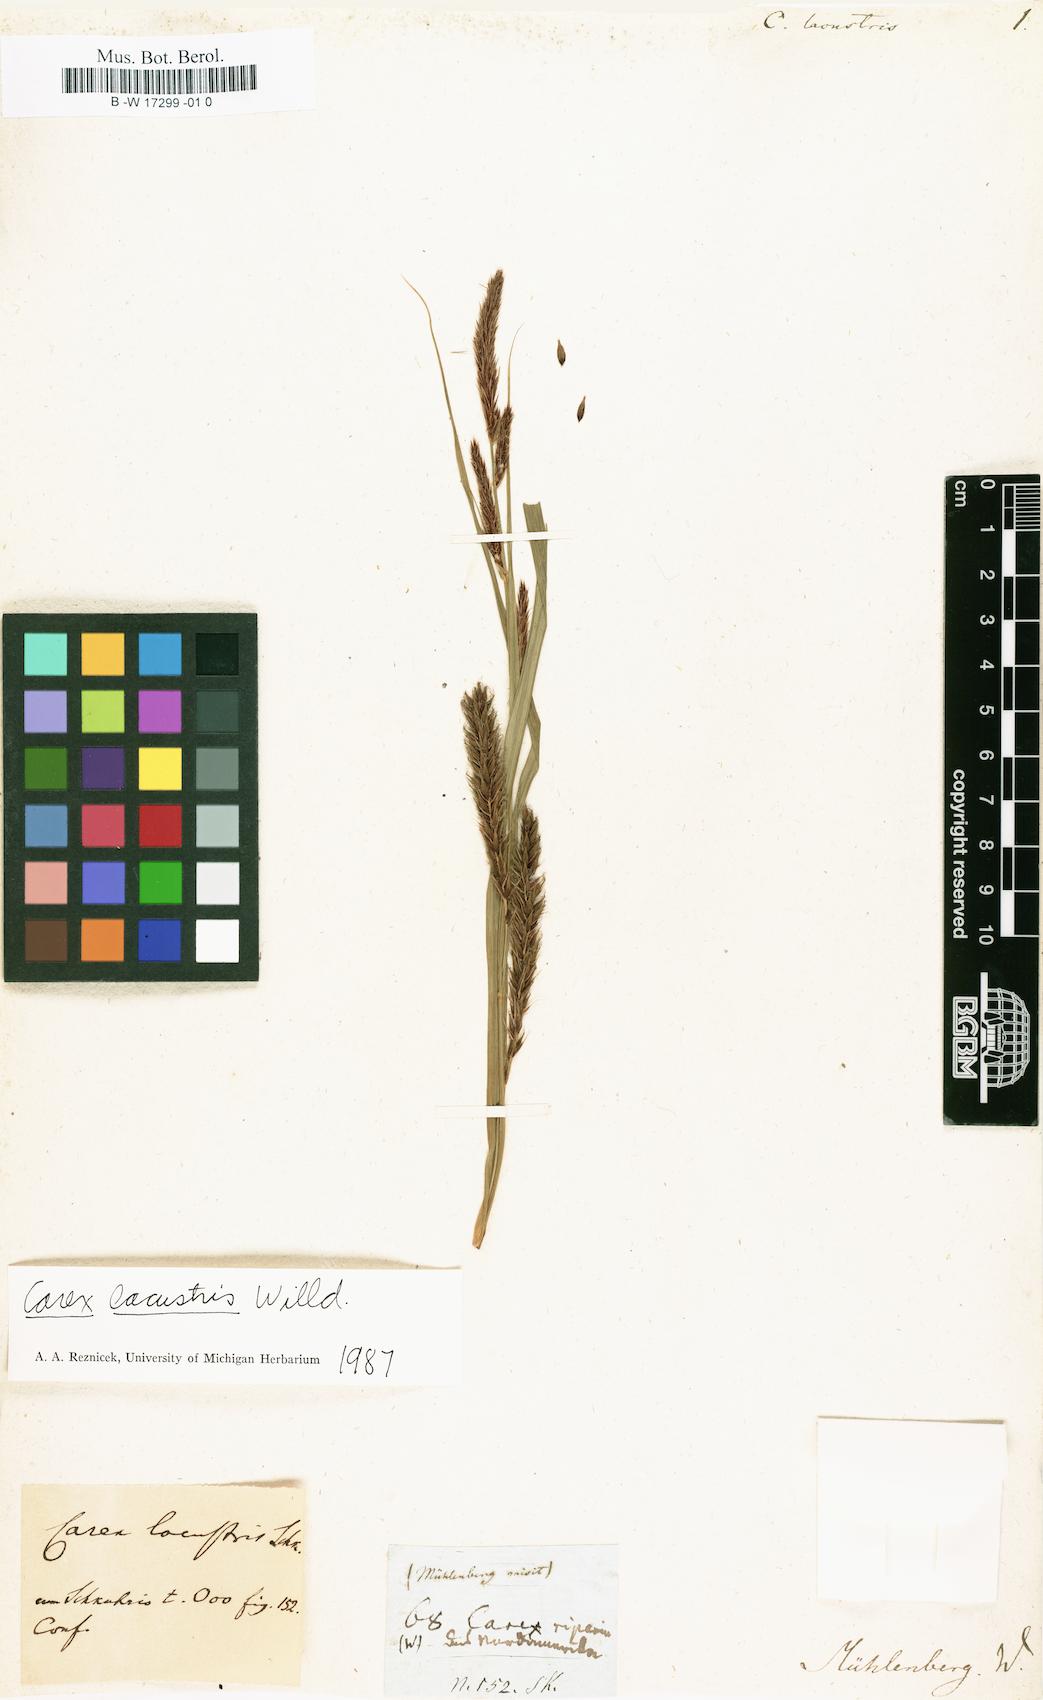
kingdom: Plantae
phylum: Tracheophyta
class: Liliopsida
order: Poales
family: Cyperaceae
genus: Carex
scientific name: Carex lacustris
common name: Common lake sedge
